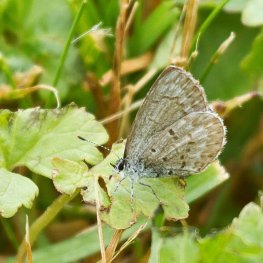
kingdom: Animalia
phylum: Arthropoda
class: Insecta
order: Lepidoptera
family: Lycaenidae
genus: Celastrina
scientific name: Celastrina serotina
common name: Cherry Gall Azure
